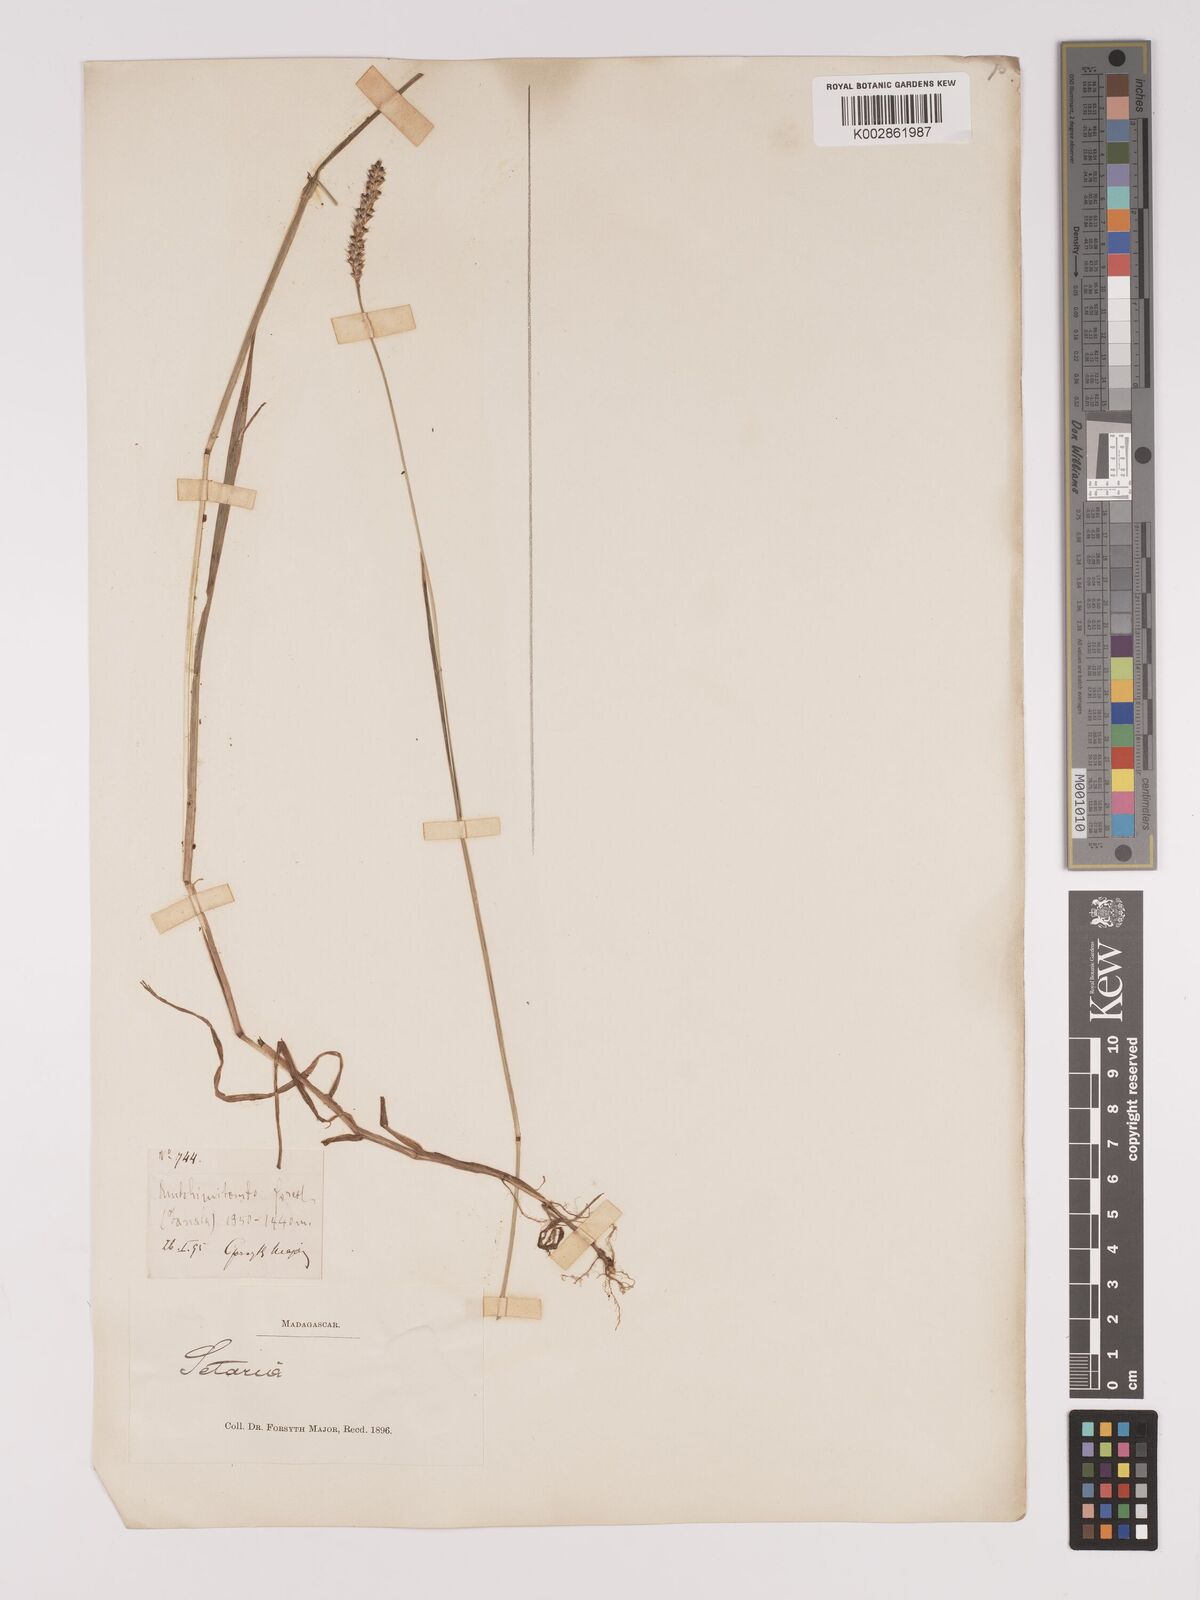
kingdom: Plantae
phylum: Tracheophyta
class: Liliopsida
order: Poales
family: Poaceae
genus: Setaria
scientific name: Setaria pumila
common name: Yellow bristle-grass
